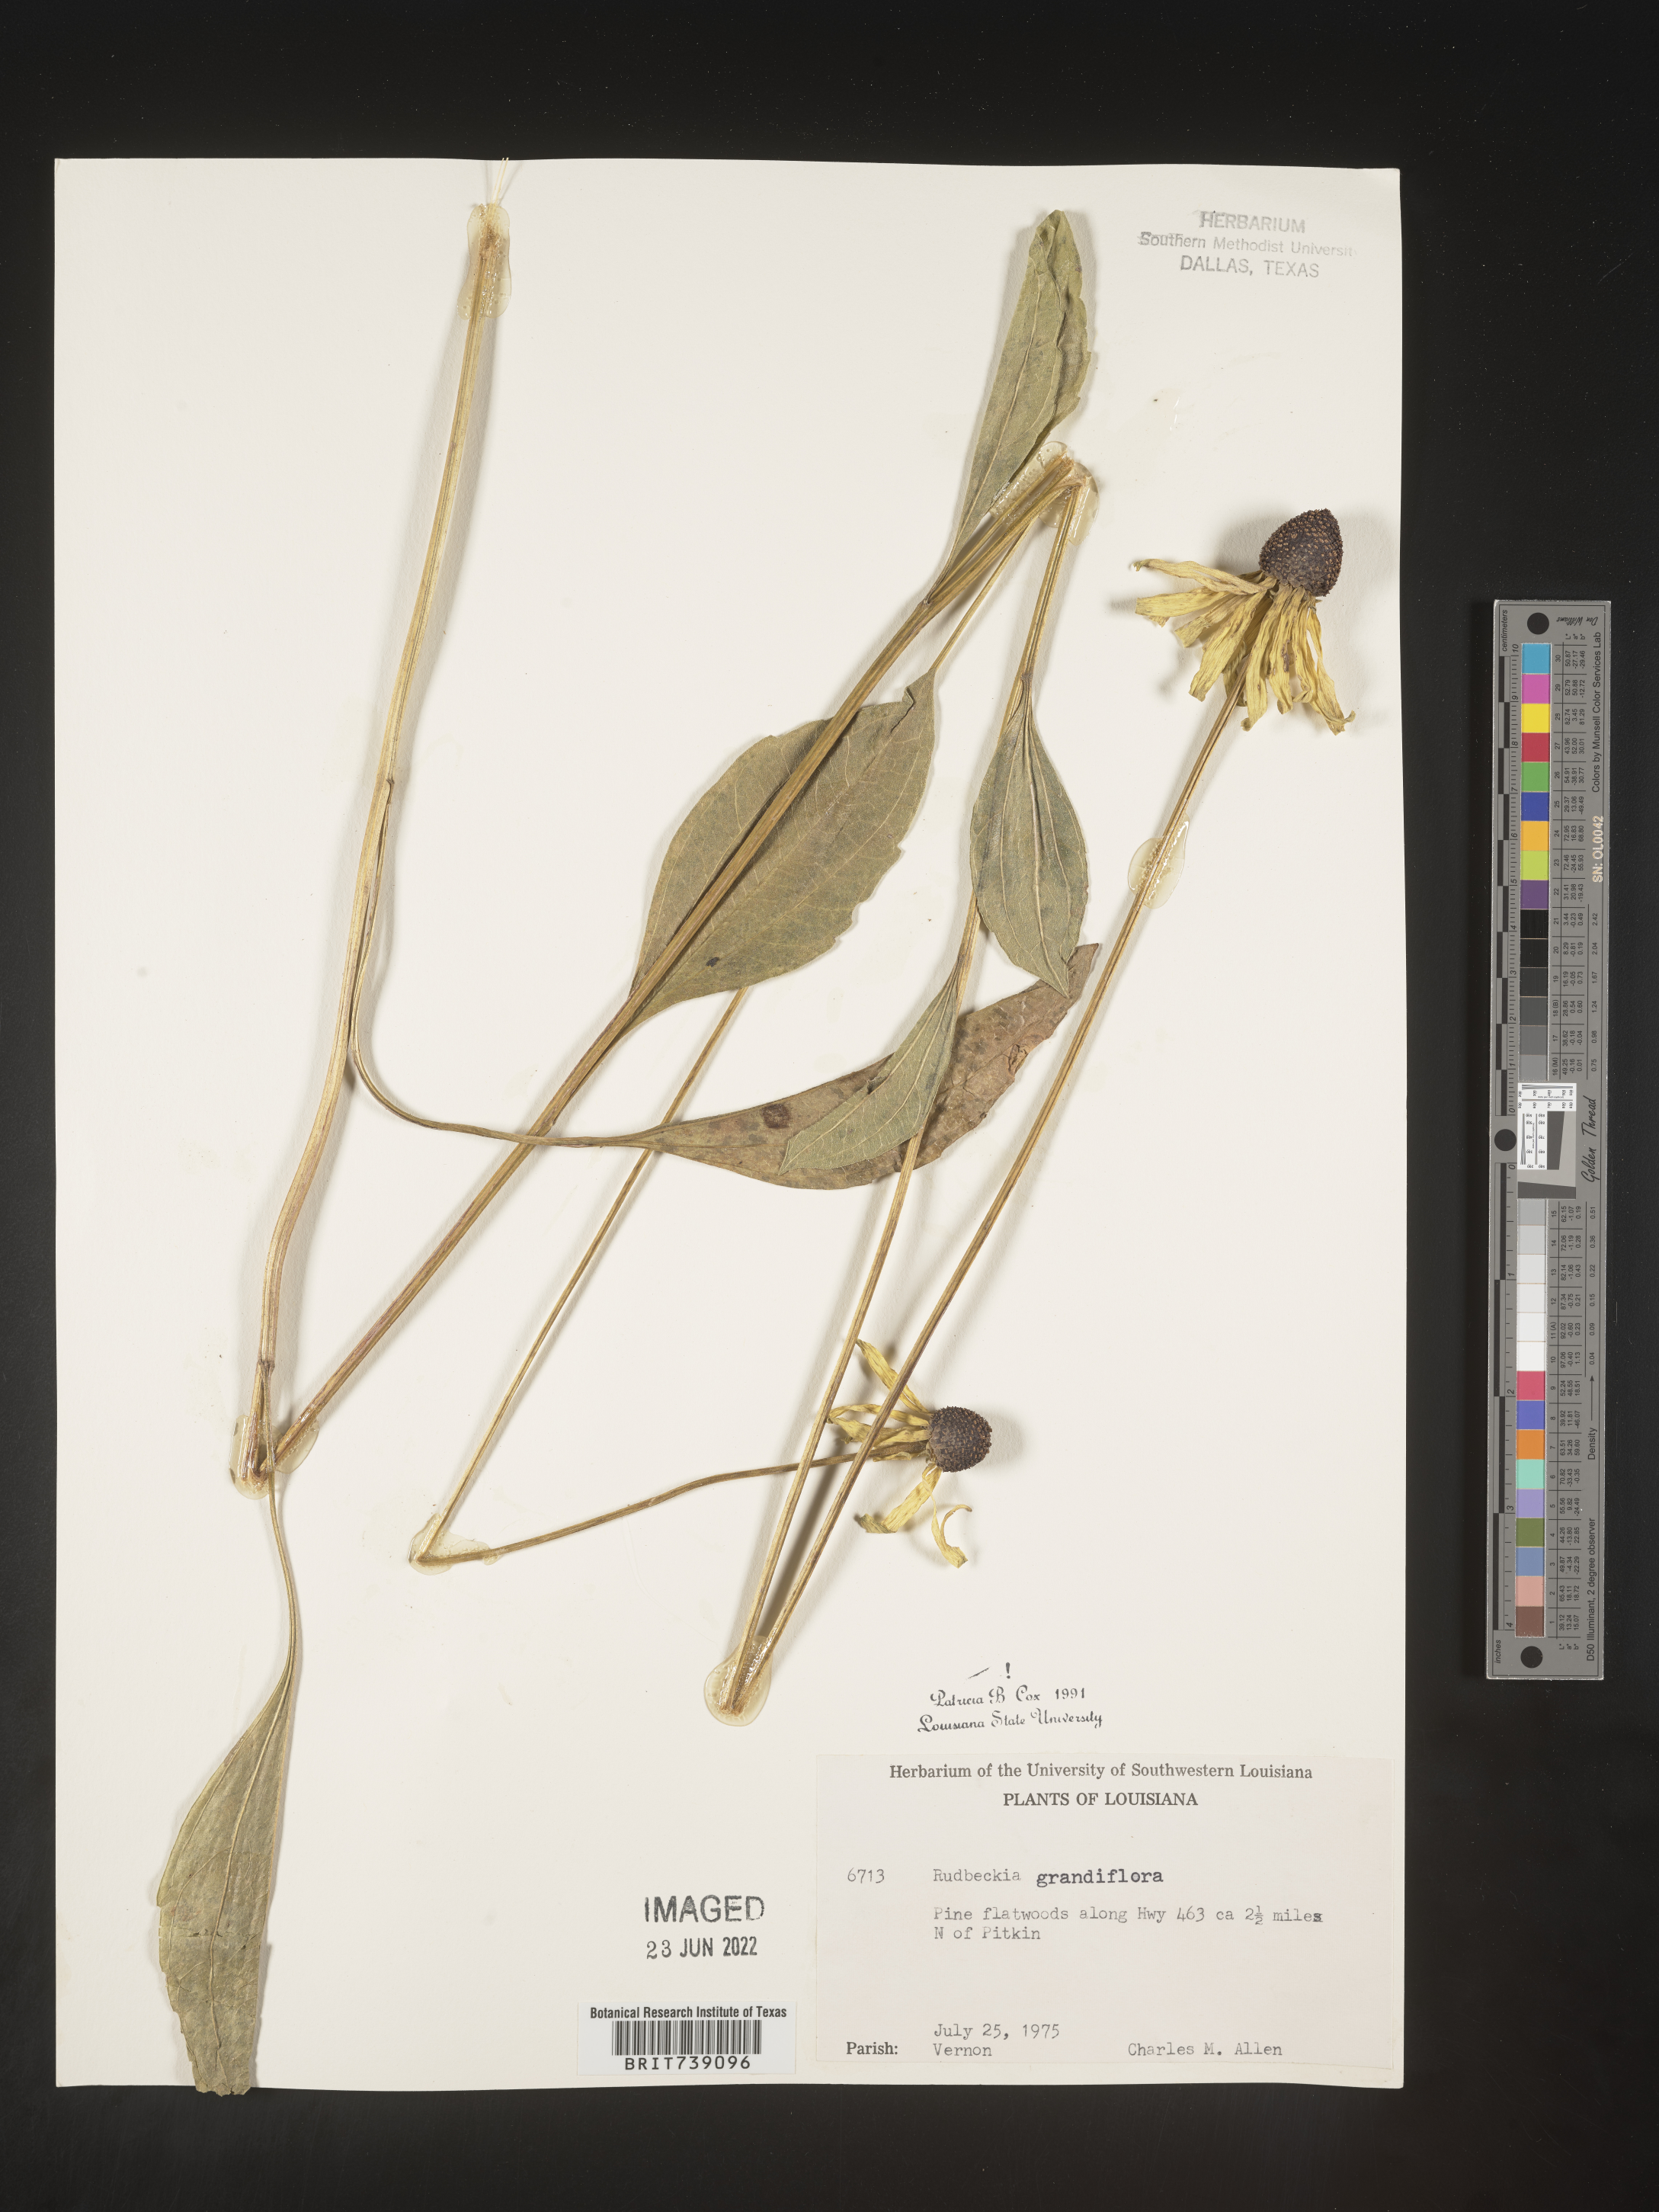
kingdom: Plantae
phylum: Tracheophyta
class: Magnoliopsida
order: Asterales
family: Asteraceae
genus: Rudbeckia
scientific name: Rudbeckia grandiflora
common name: Large-flowered coneflower
